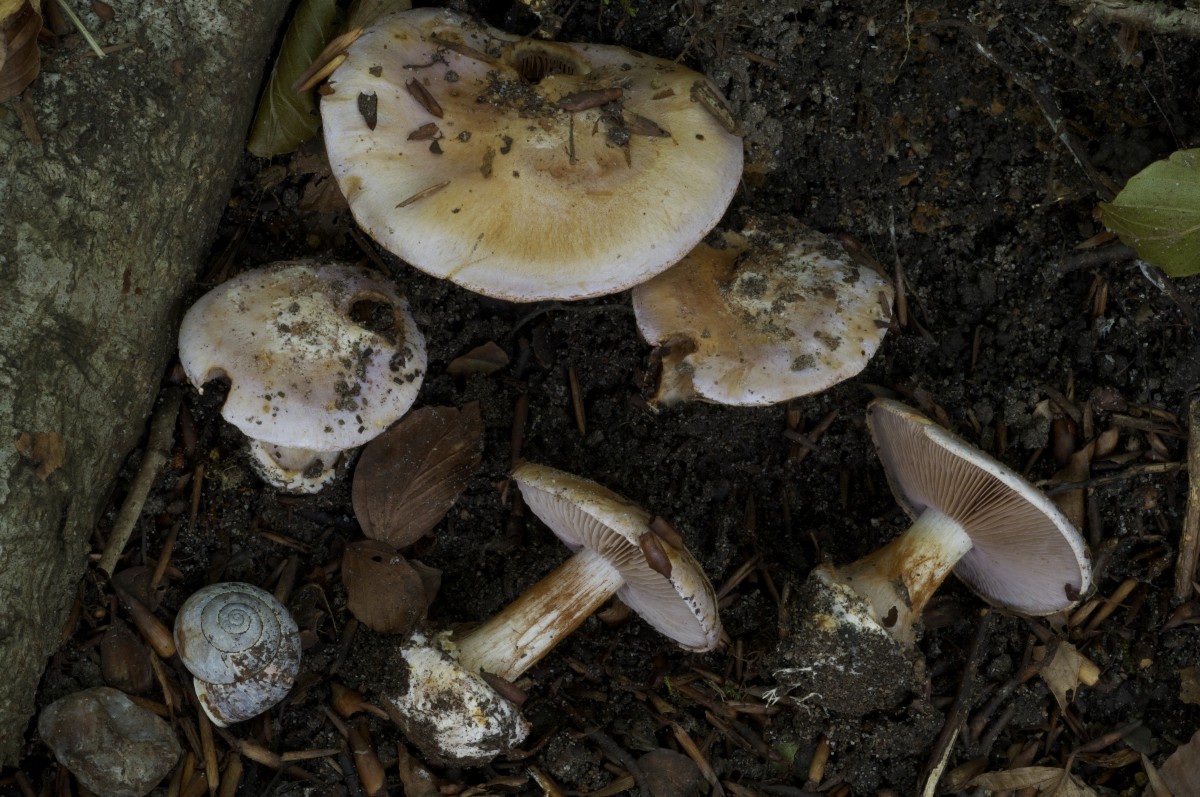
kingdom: Fungi
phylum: Basidiomycota
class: Agaricomycetes
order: Agaricales
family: Cortinariaceae
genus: Calonarius
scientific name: Calonarius nymphicolor
